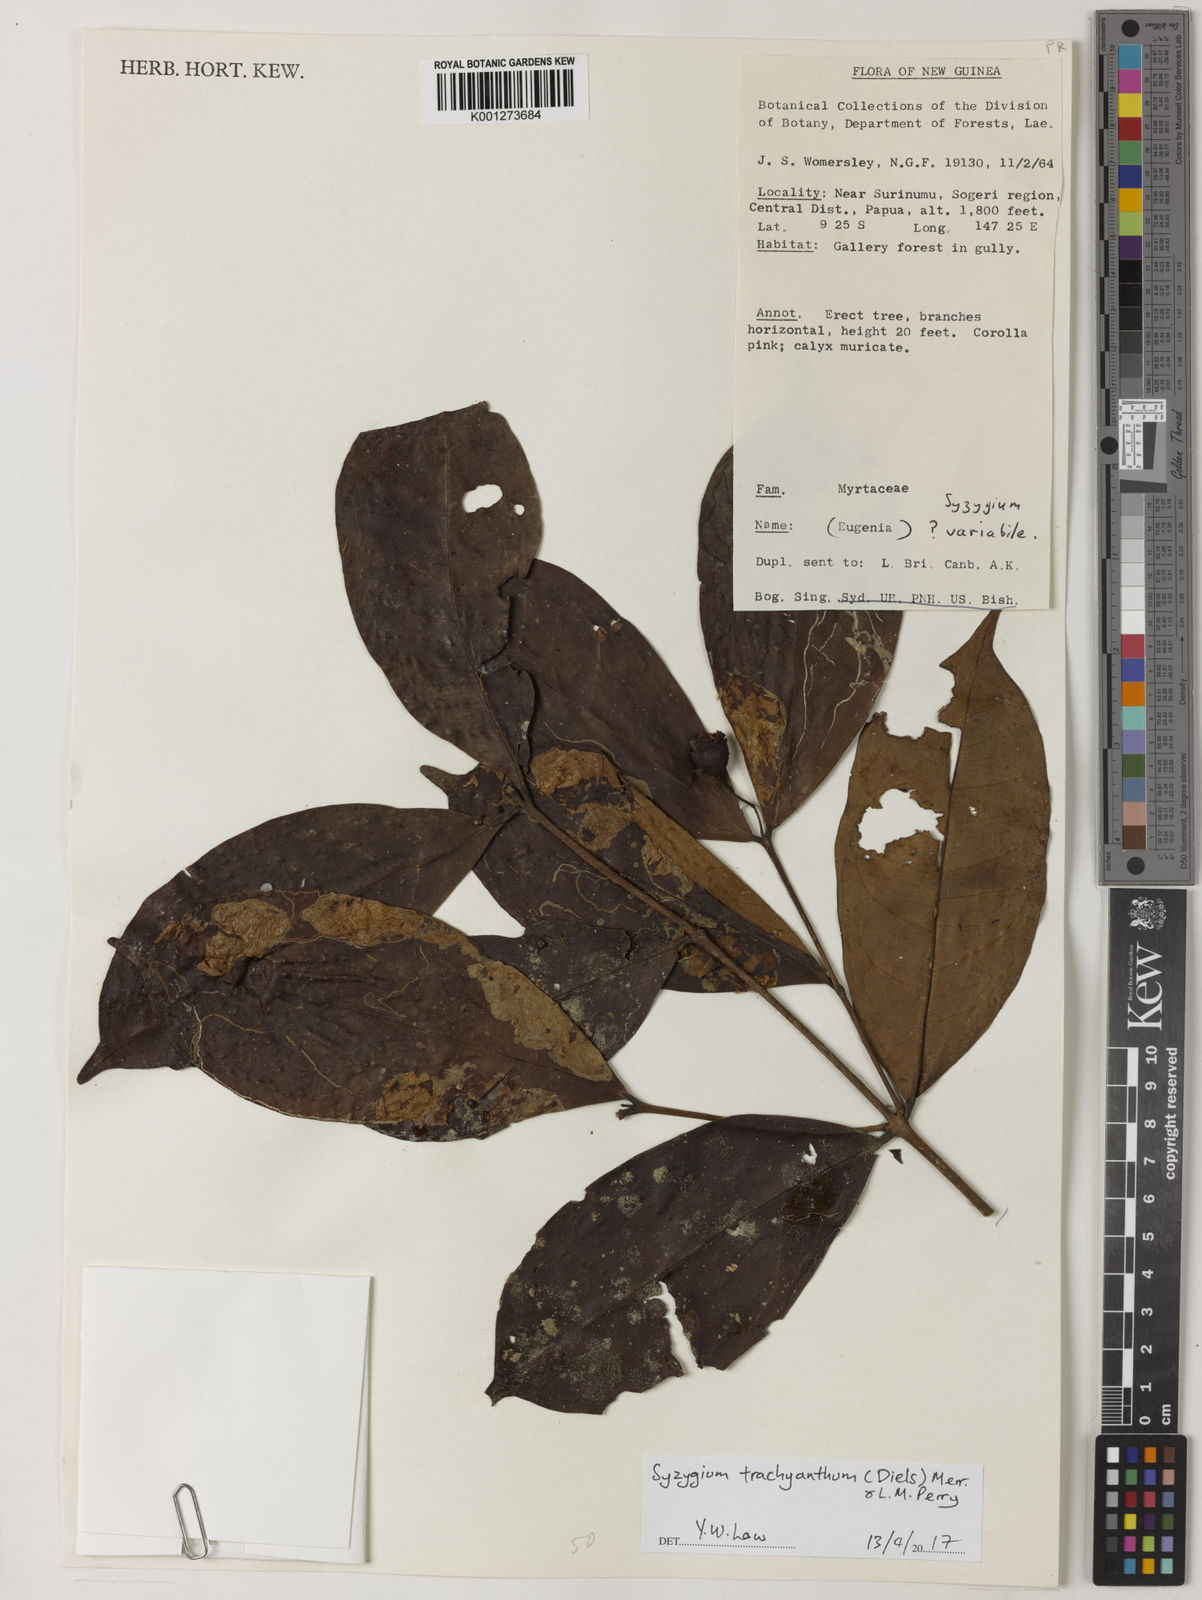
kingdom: Plantae
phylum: Tracheophyta
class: Magnoliopsida
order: Myrtales
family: Myrtaceae
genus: Syzygium
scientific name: Syzygium trachyanthum
